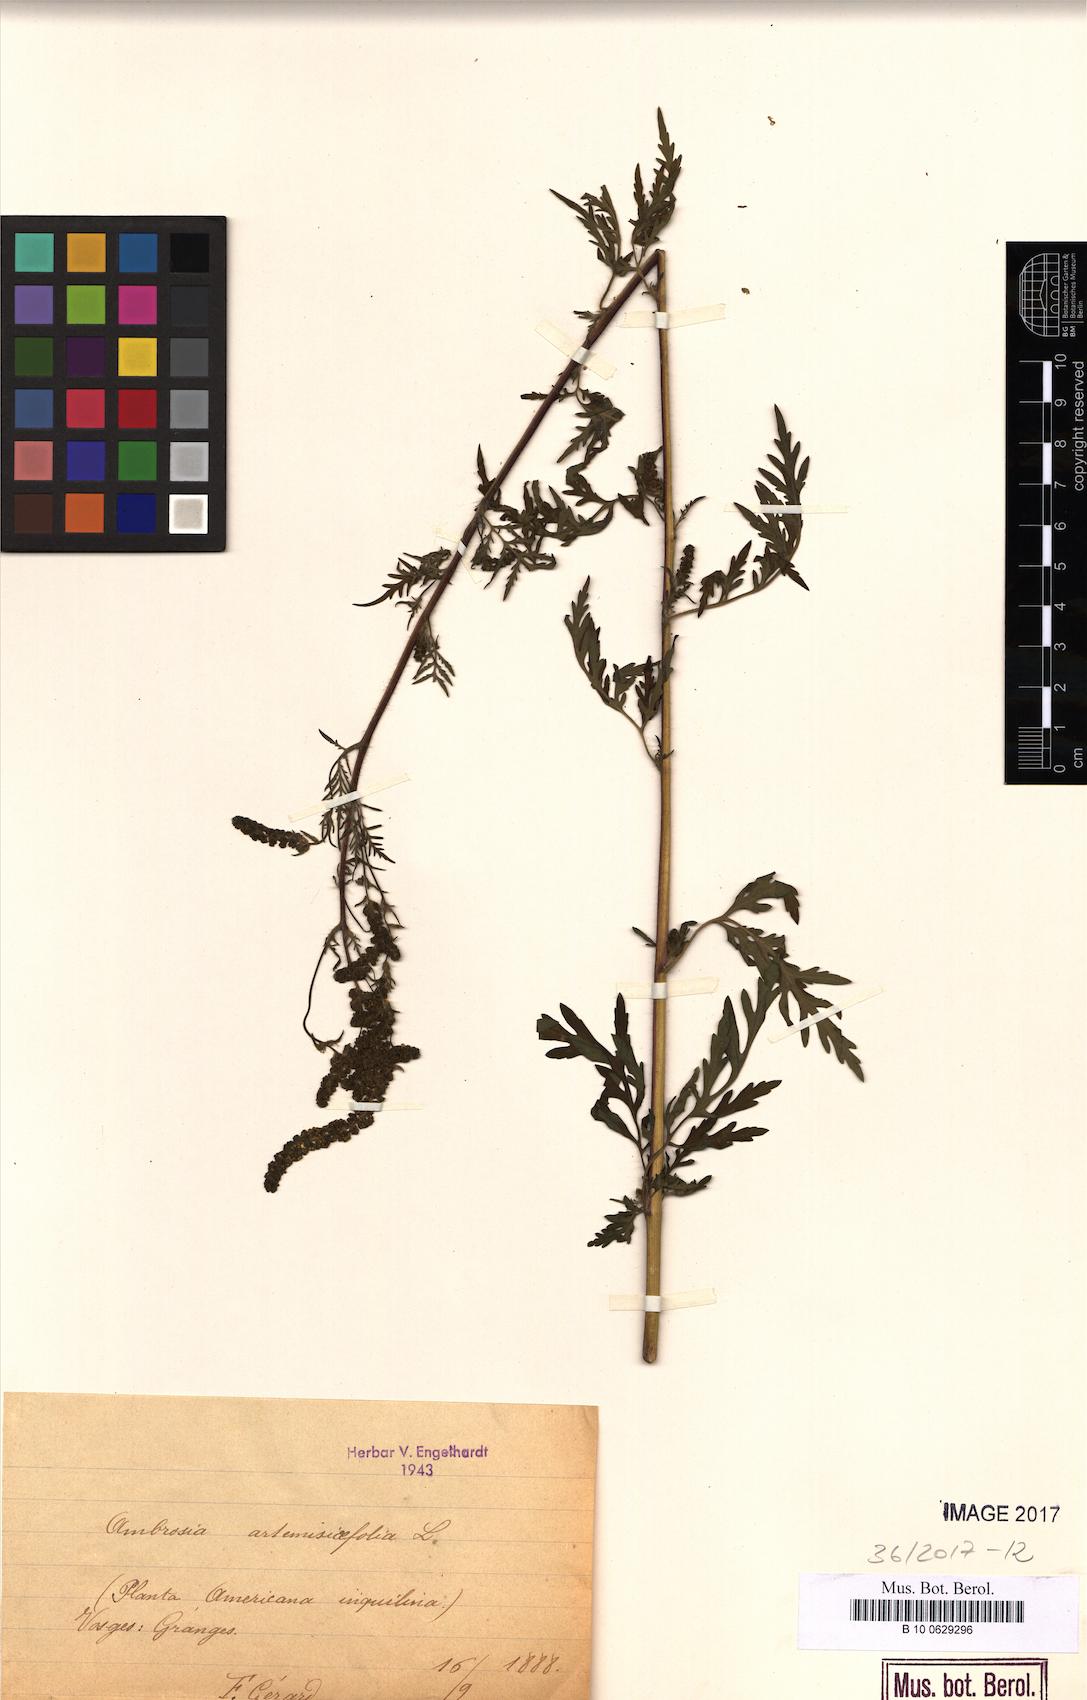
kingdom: Plantae
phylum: Tracheophyta
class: Magnoliopsida
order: Asterales
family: Asteraceae
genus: Ambrosia
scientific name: Ambrosia artemisiifolia
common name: Annual ragweed
